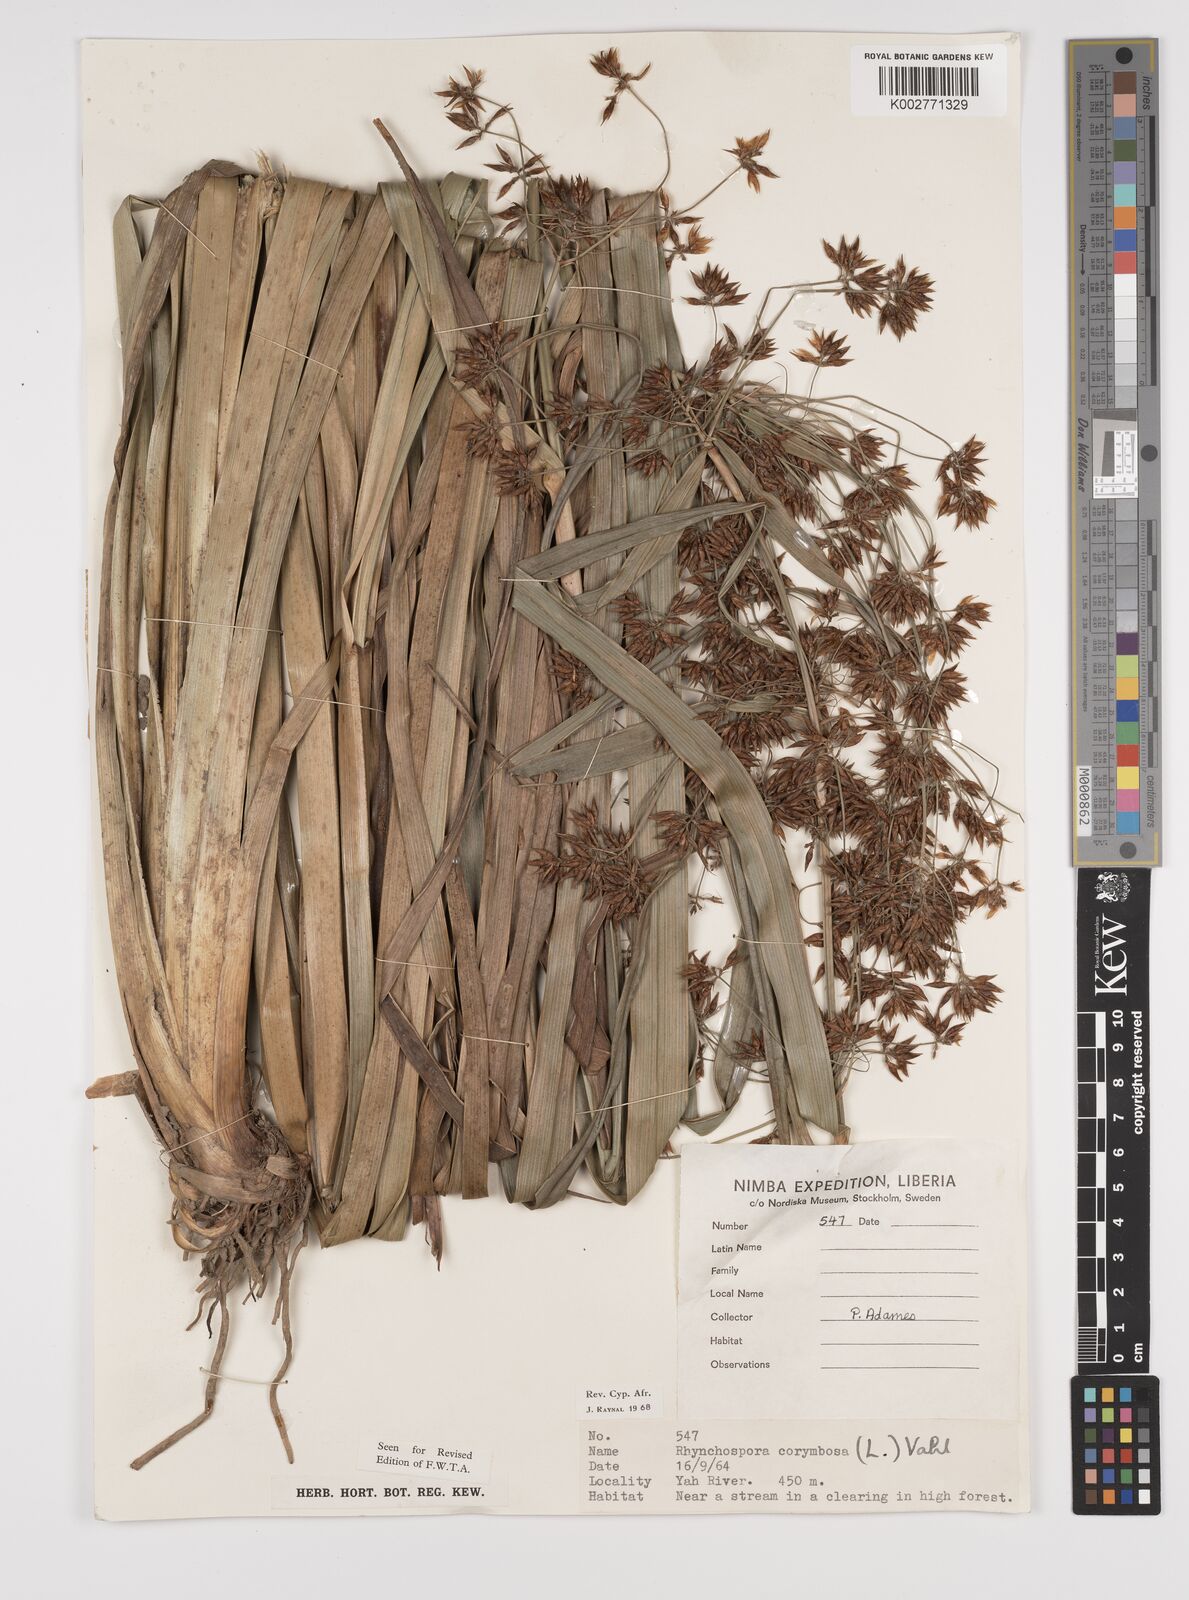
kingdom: Plantae
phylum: Tracheophyta
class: Liliopsida
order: Poales
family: Cyperaceae
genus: Rhynchospora
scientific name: Rhynchospora corymbosa
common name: Golden beak sedge
